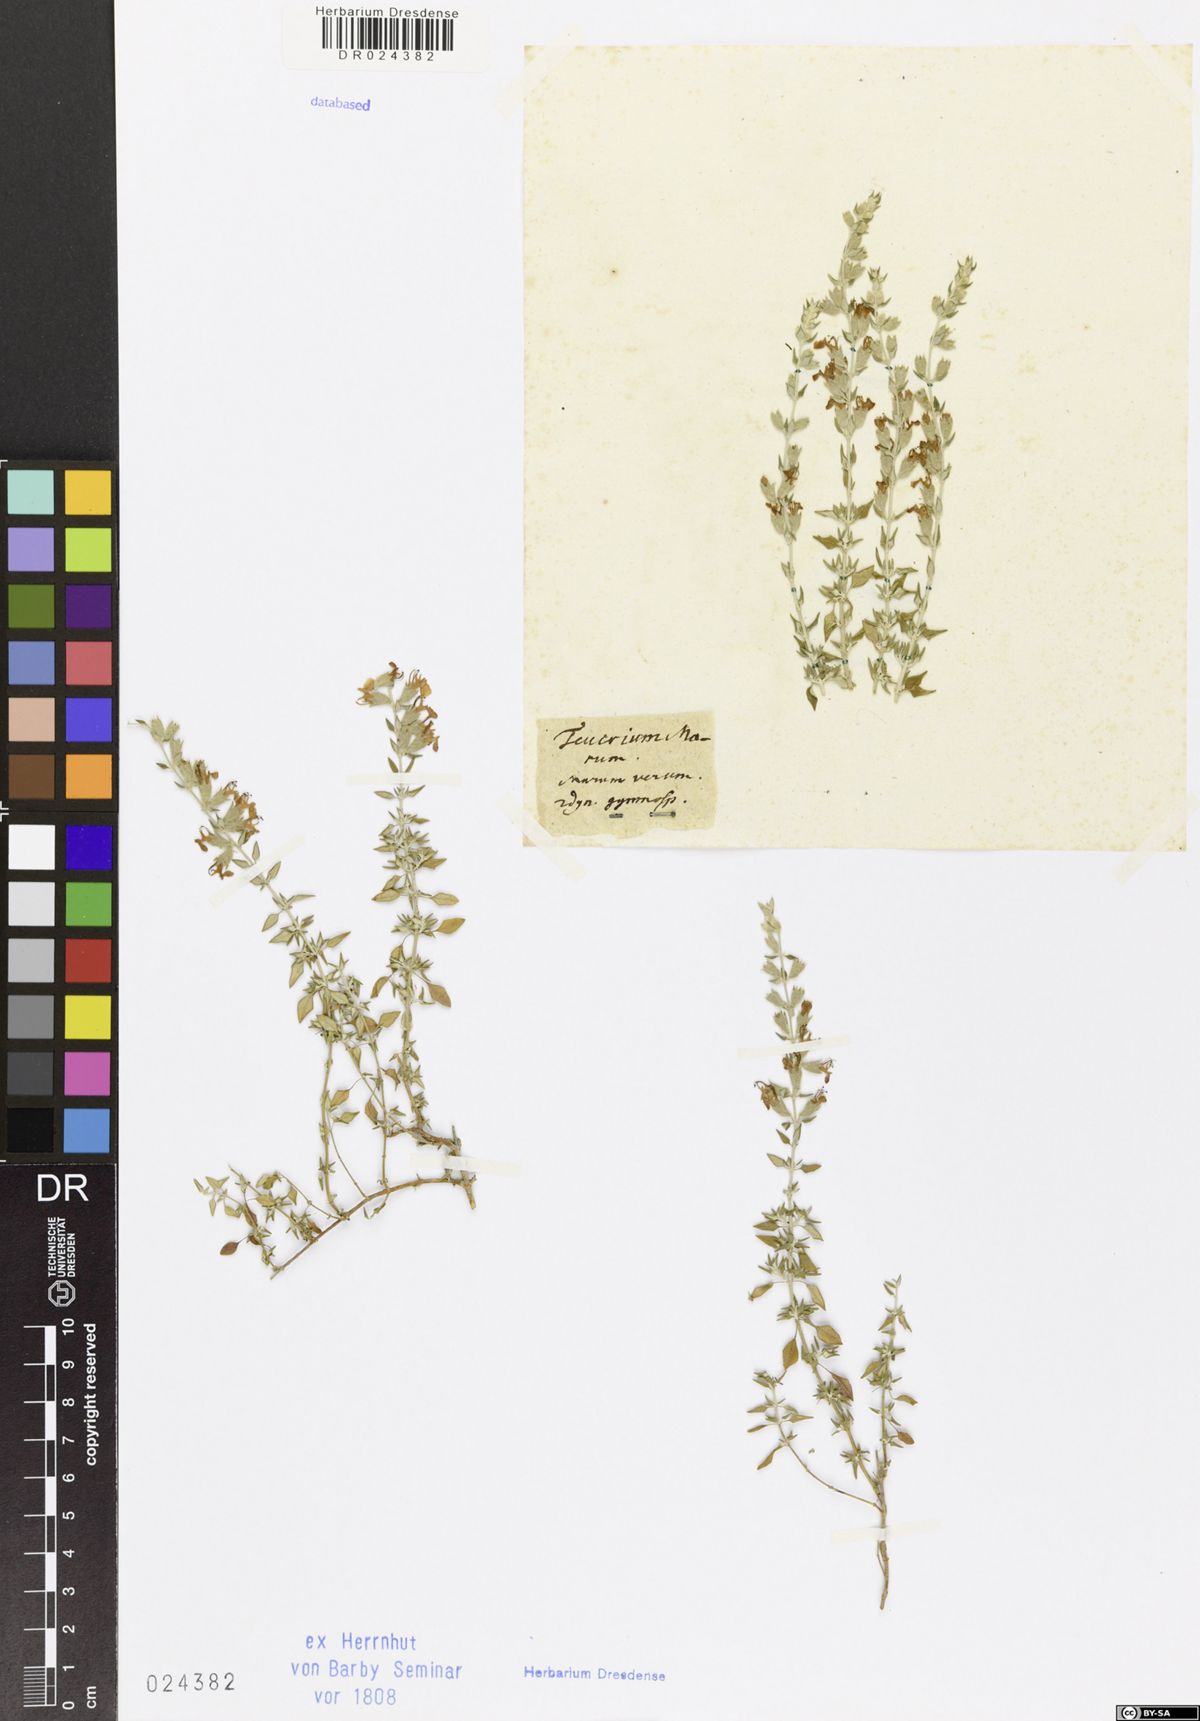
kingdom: Plantae
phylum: Tracheophyta
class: Magnoliopsida
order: Lamiales
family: Lamiaceae
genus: Teucrium
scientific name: Teucrium marum
